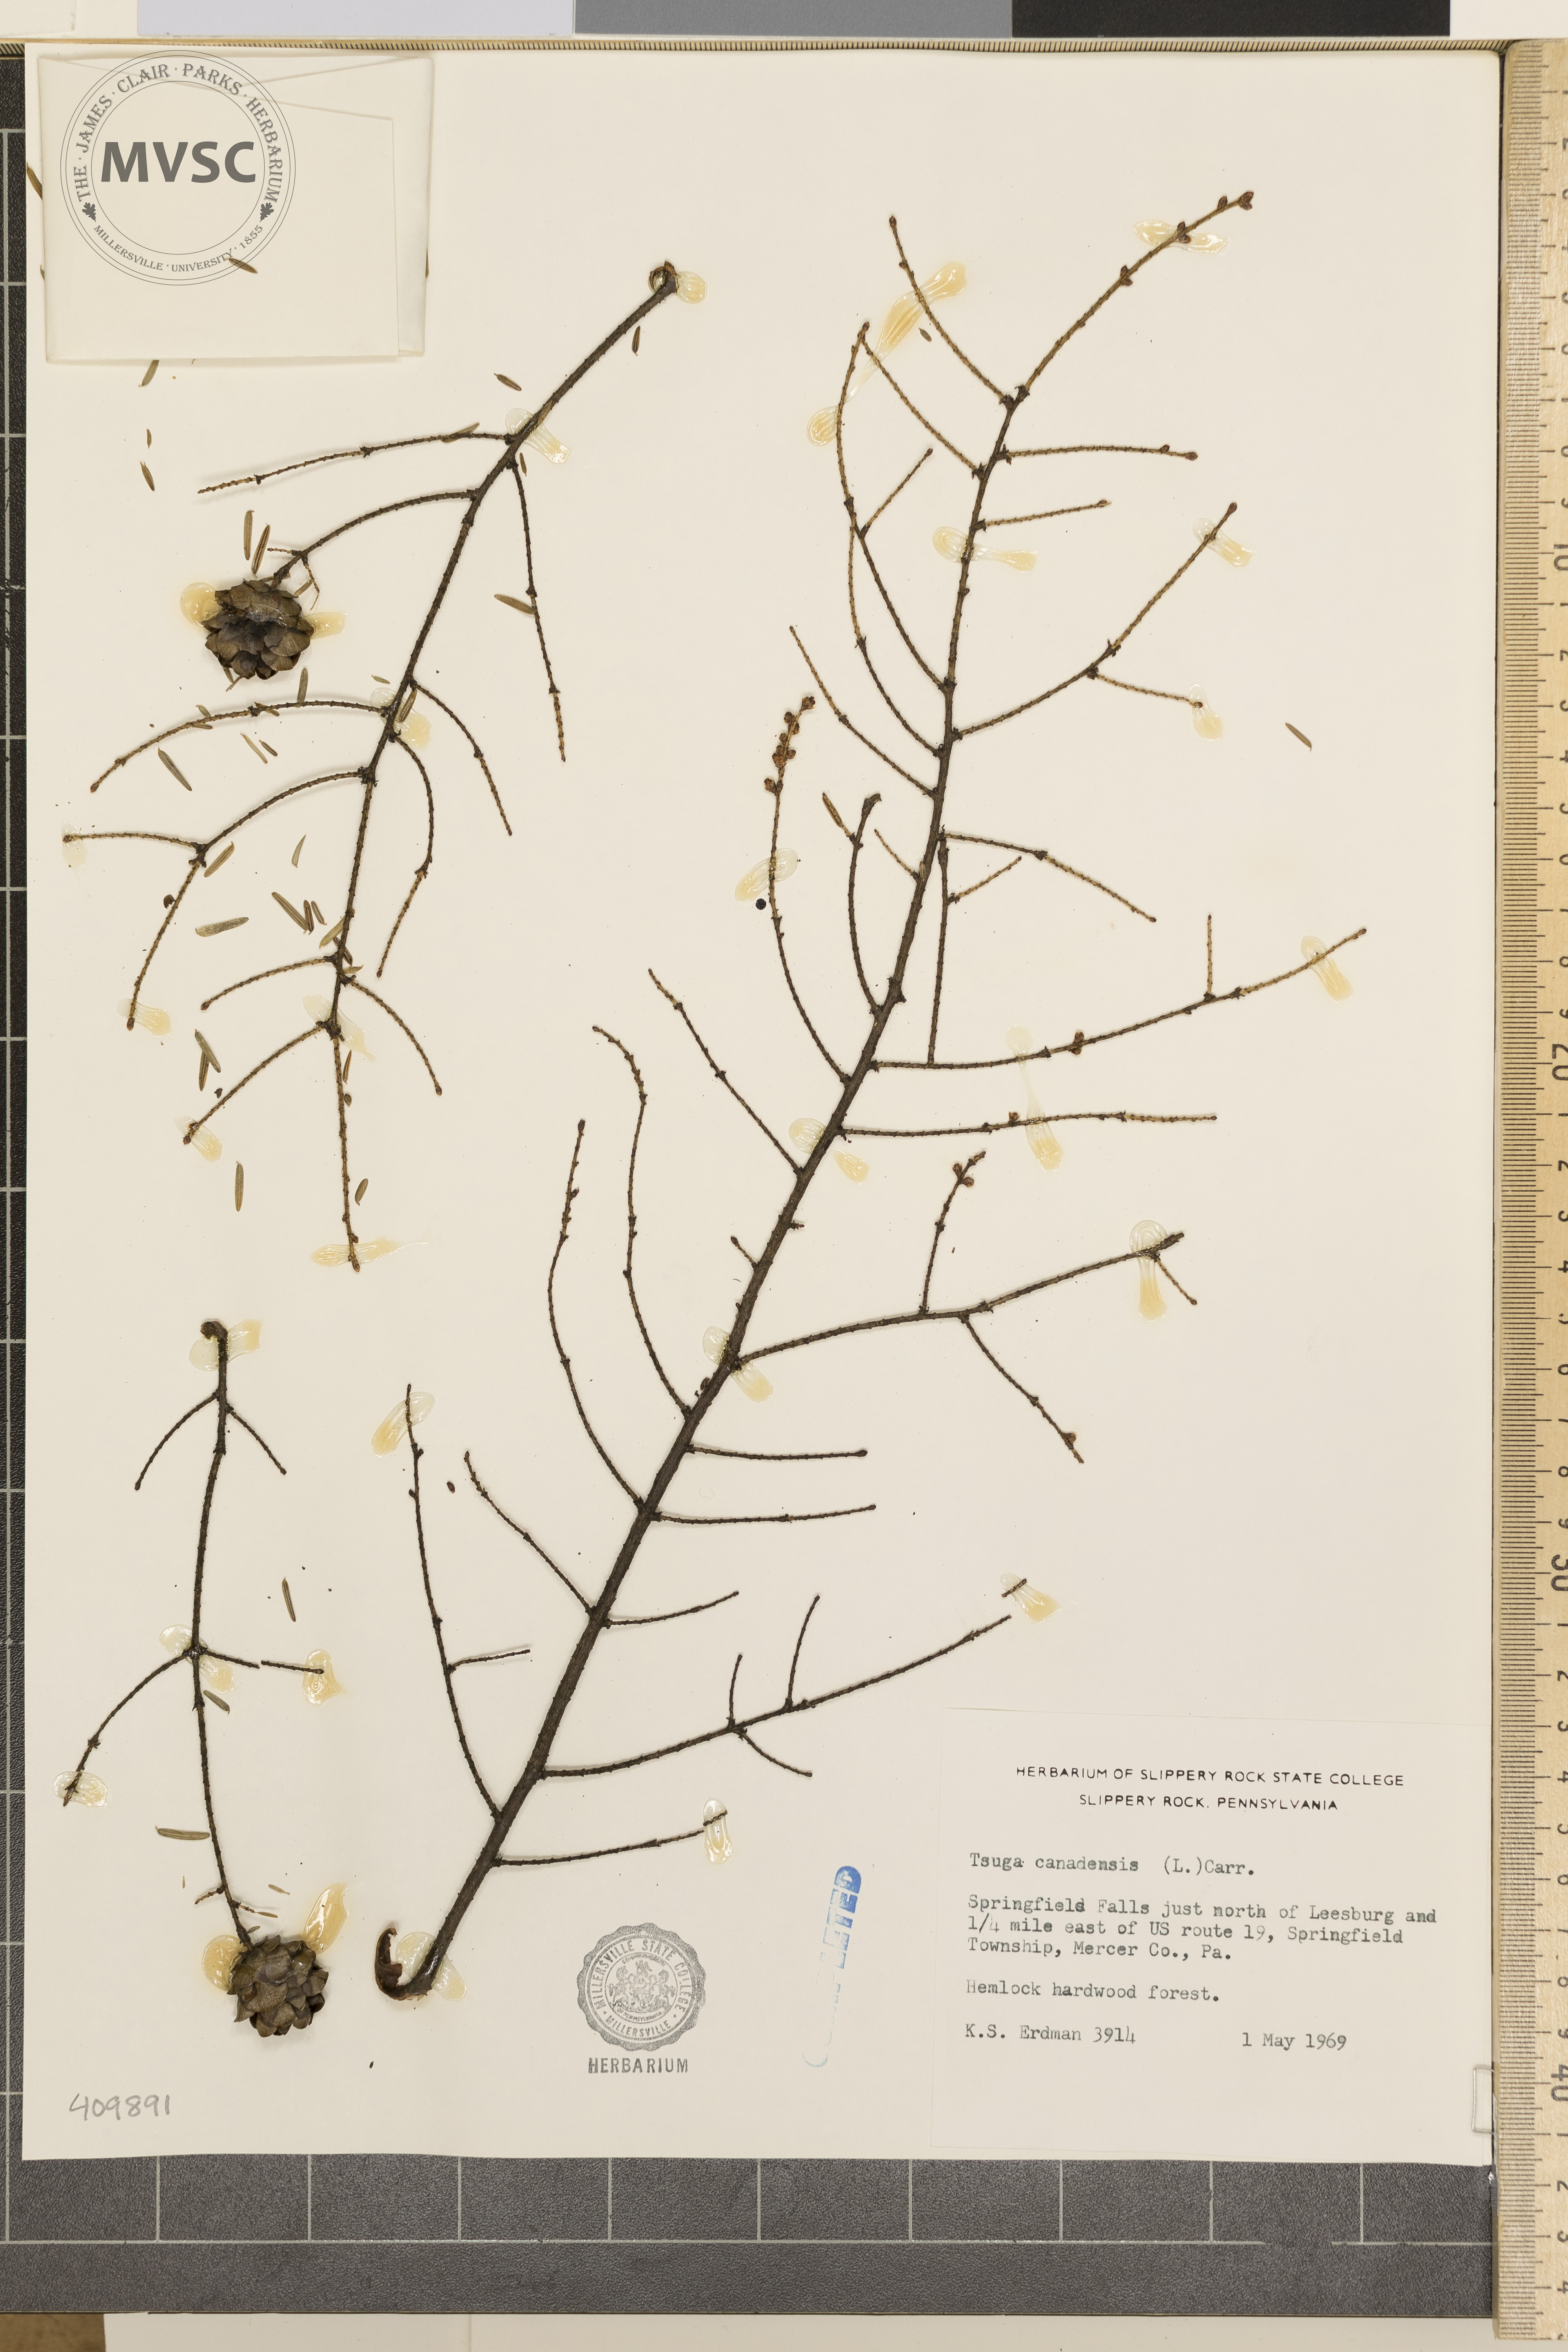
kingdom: Plantae
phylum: Tracheophyta
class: Pinopsida
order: Pinales
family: Pinaceae
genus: Tsuga
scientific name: Tsuga canadensis
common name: Eastern hemlock
